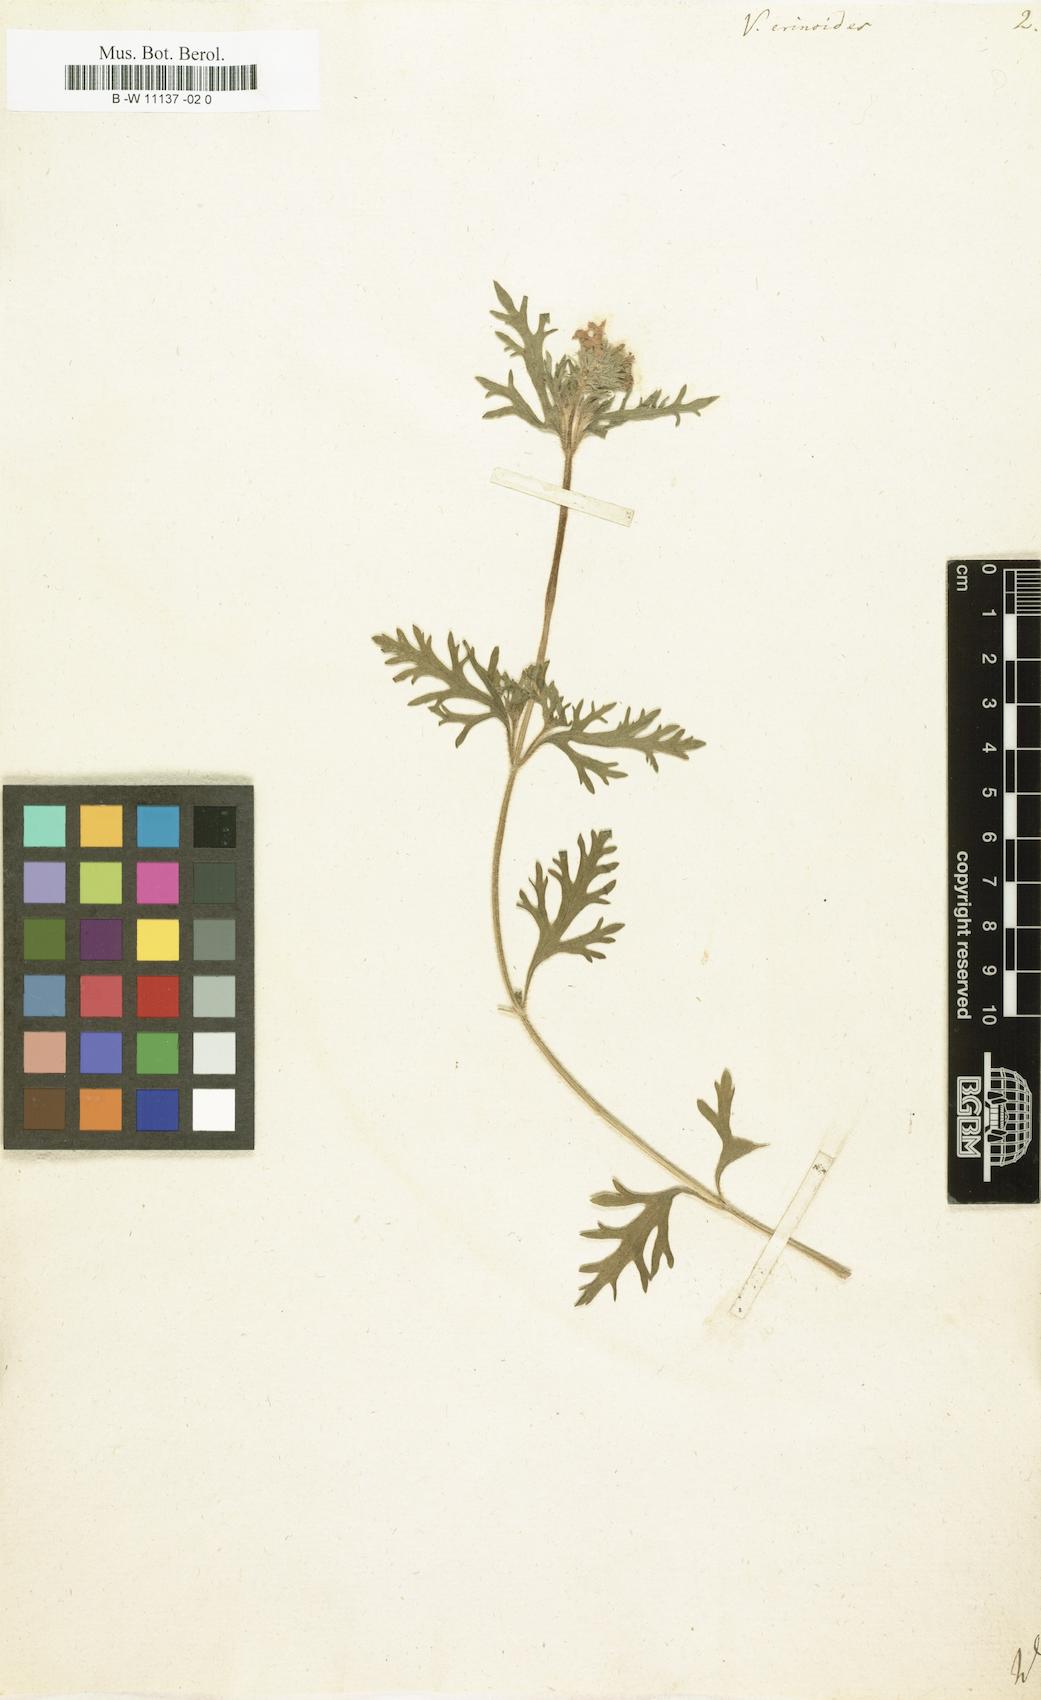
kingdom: Plantae
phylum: Tracheophyta
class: Magnoliopsida
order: Lamiales
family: Verbenaceae
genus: Verbena
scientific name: Verbena laciniata
